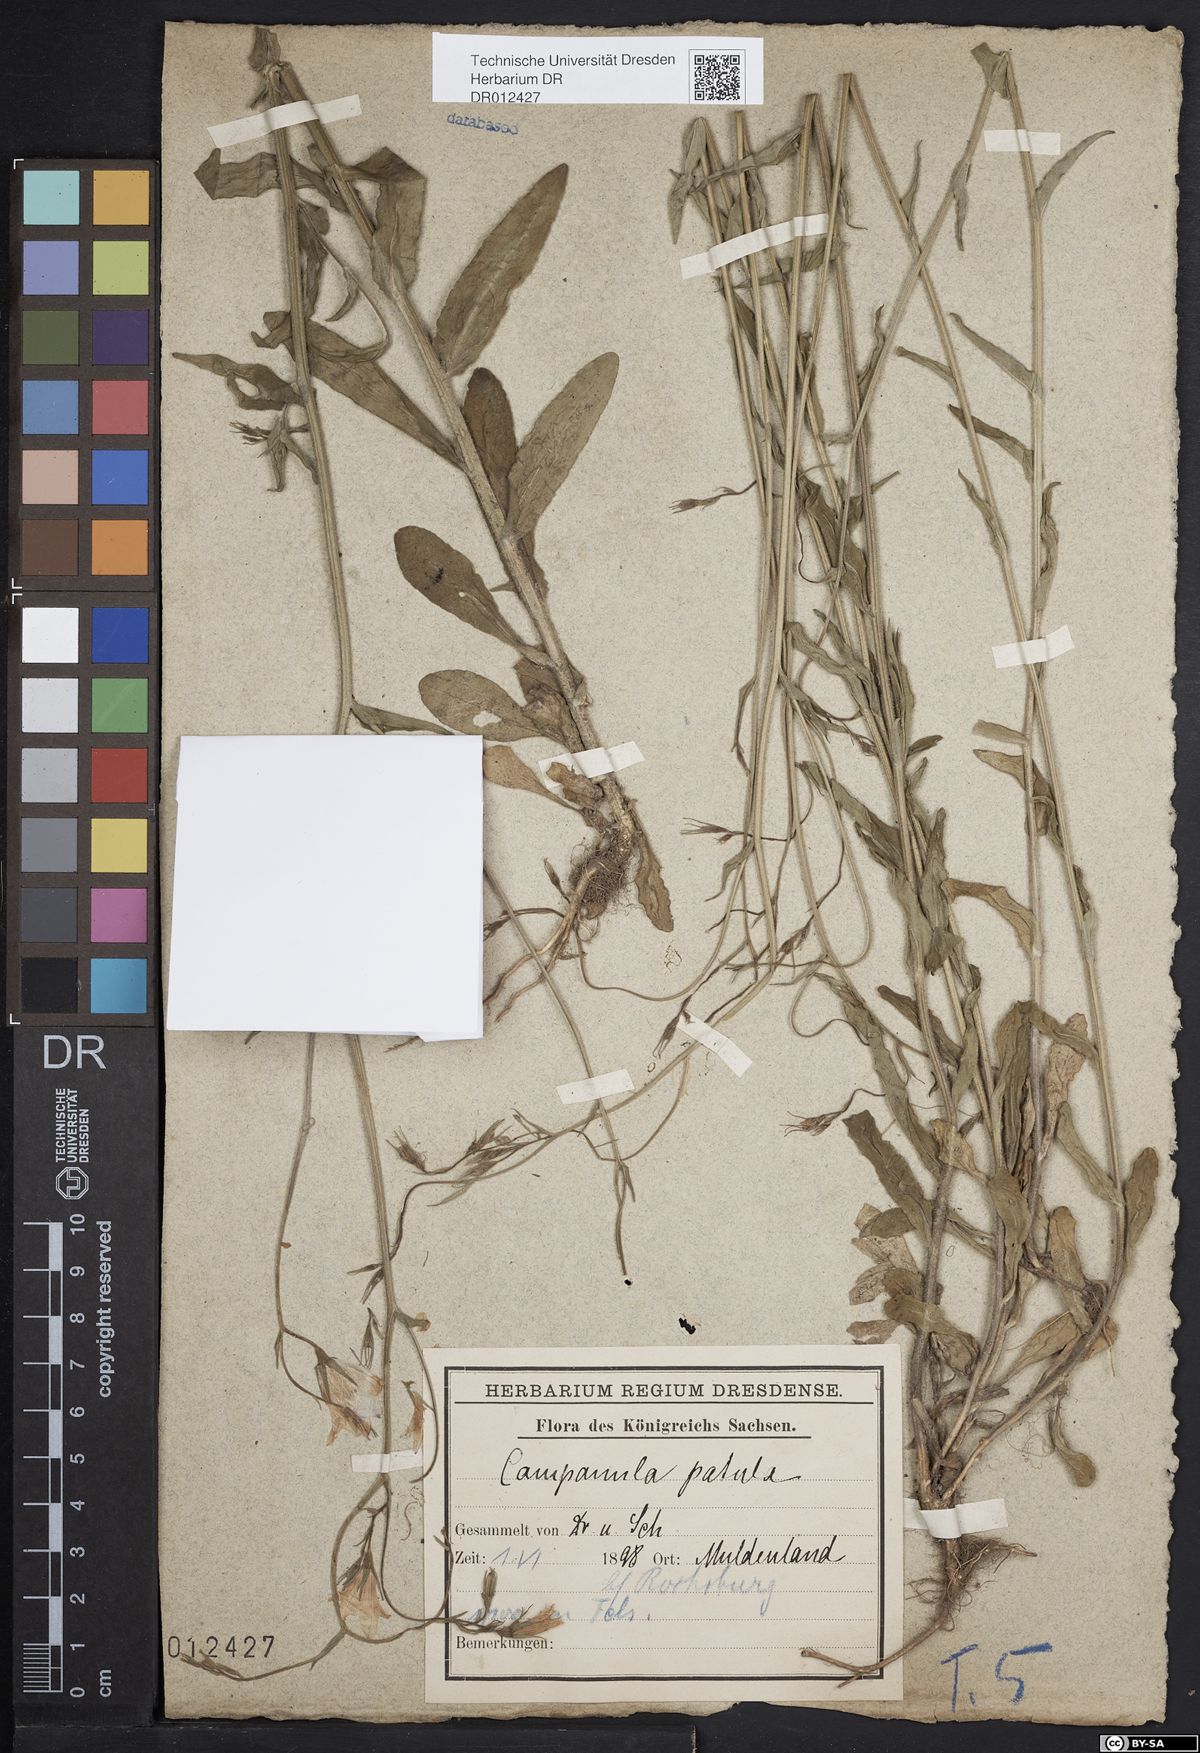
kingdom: Plantae
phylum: Tracheophyta
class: Magnoliopsida
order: Asterales
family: Campanulaceae
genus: Campanula
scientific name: Campanula patula
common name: Spreading bellflower
